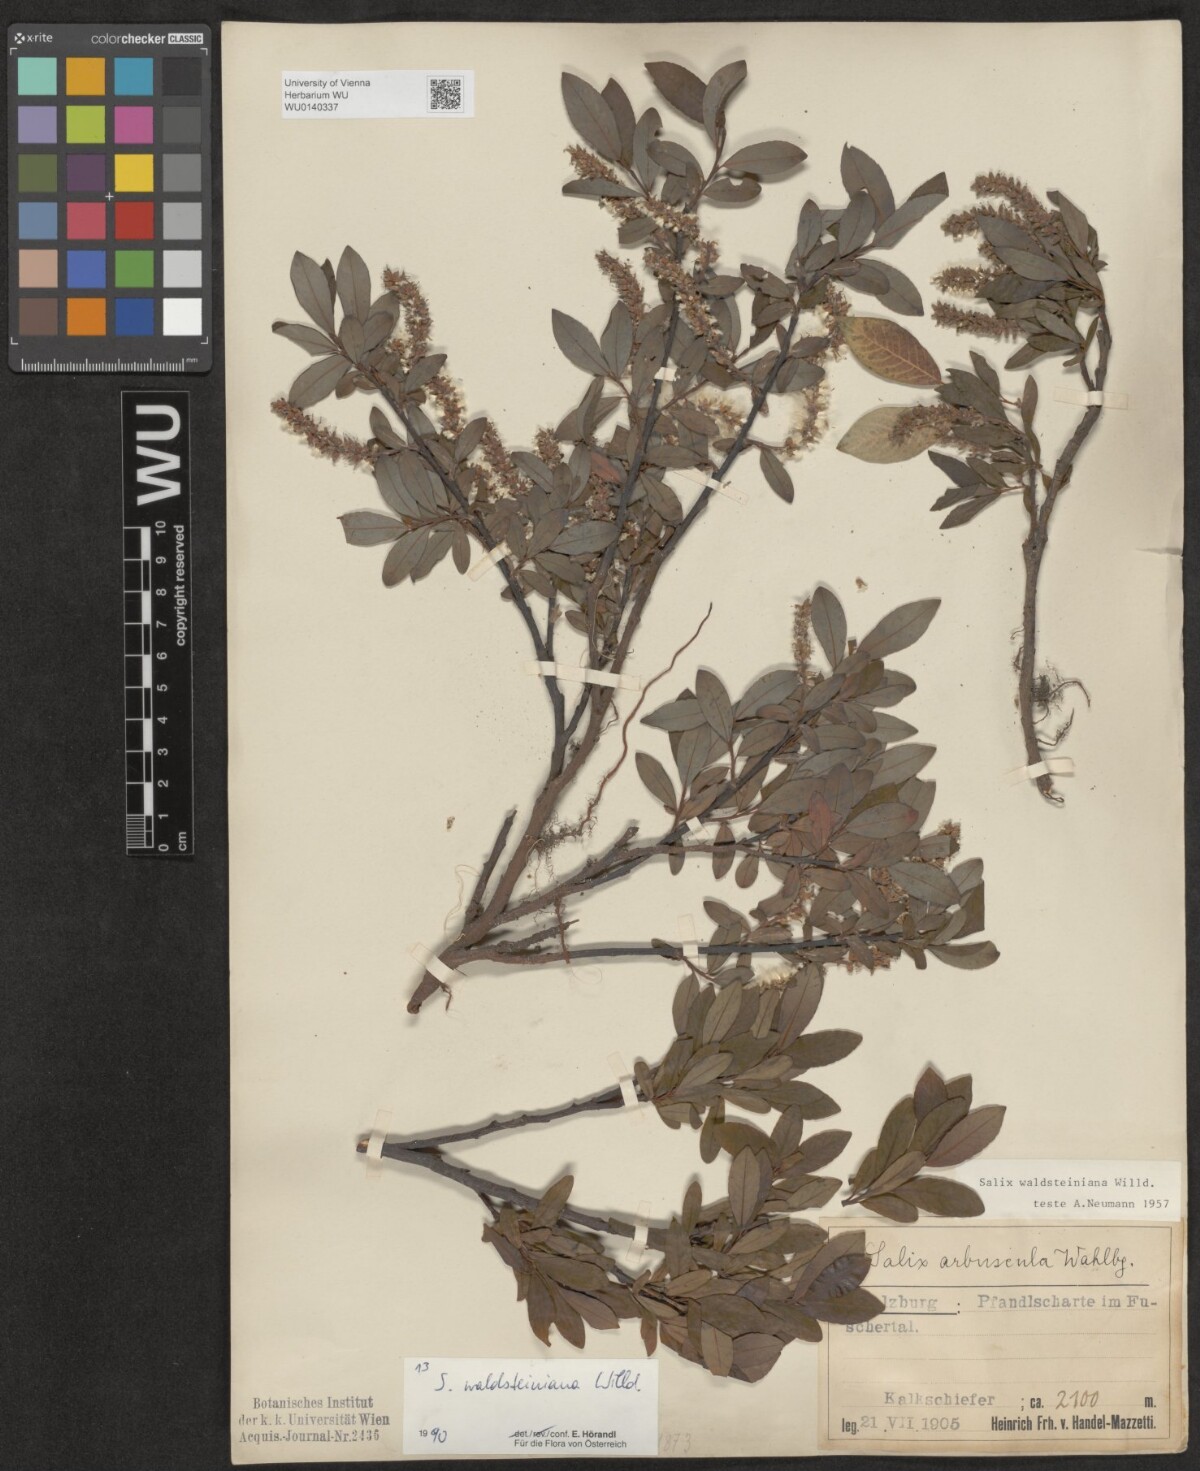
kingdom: Plantae
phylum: Tracheophyta
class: Magnoliopsida
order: Malpighiales
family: Salicaceae
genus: Salix
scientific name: Salix waldsteiniana
